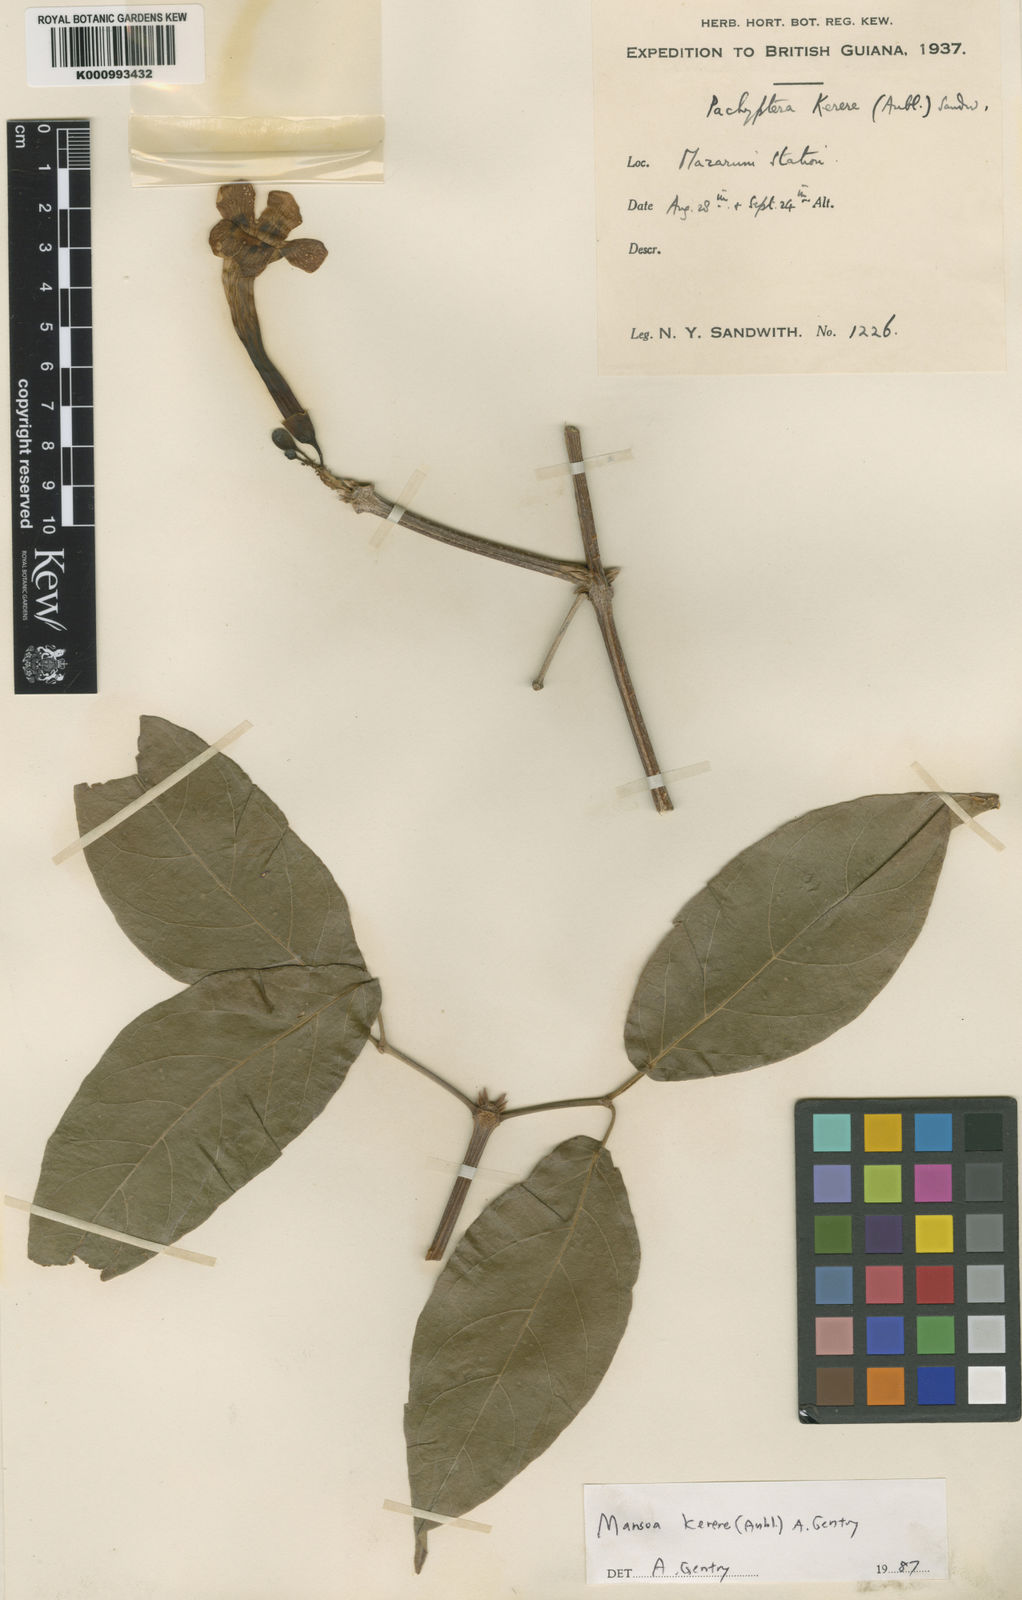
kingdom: Plantae
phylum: Tracheophyta
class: Magnoliopsida
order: Lamiales
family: Bignoniaceae
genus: Pachyptera
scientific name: Pachyptera kerere
